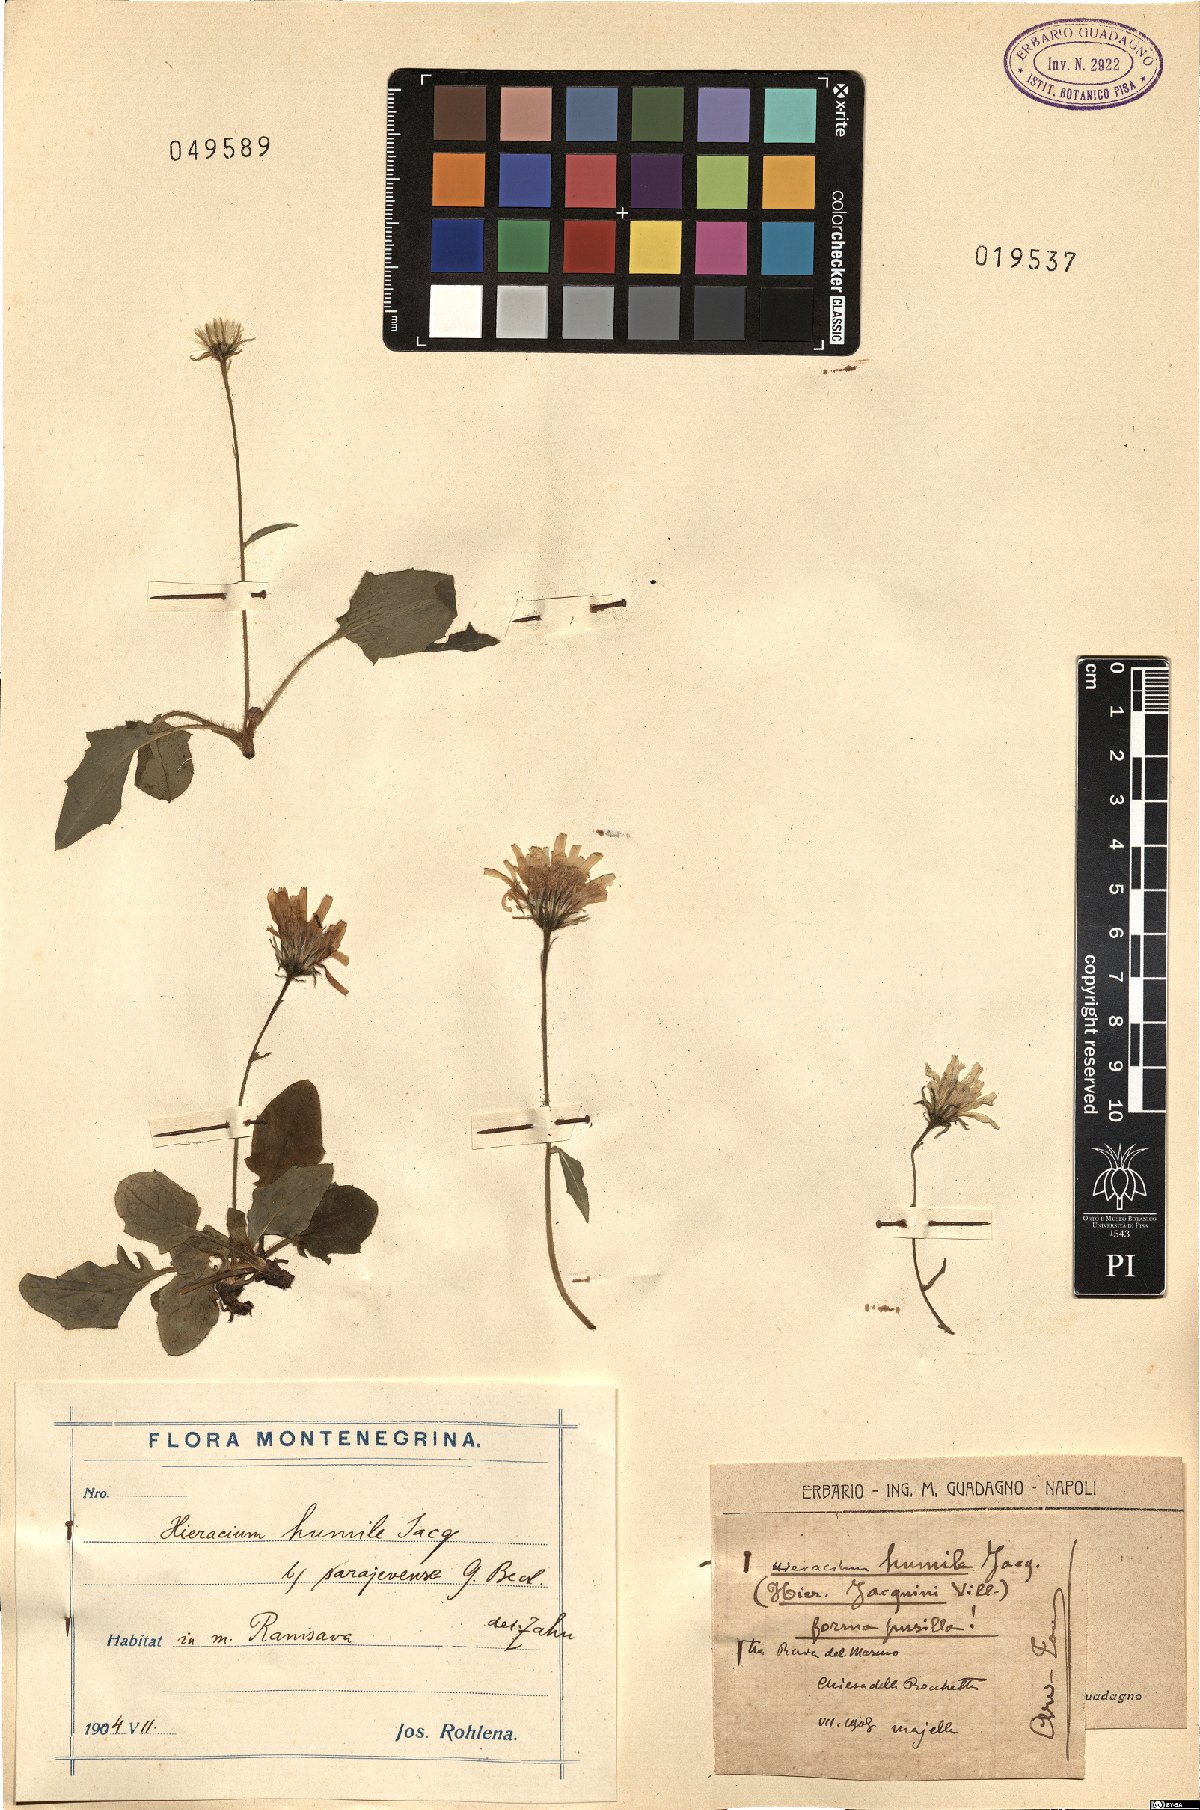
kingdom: Plantae
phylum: Tracheophyta
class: Magnoliopsida
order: Asterales
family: Asteraceae
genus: Hieracium
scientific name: Hieracium humile
